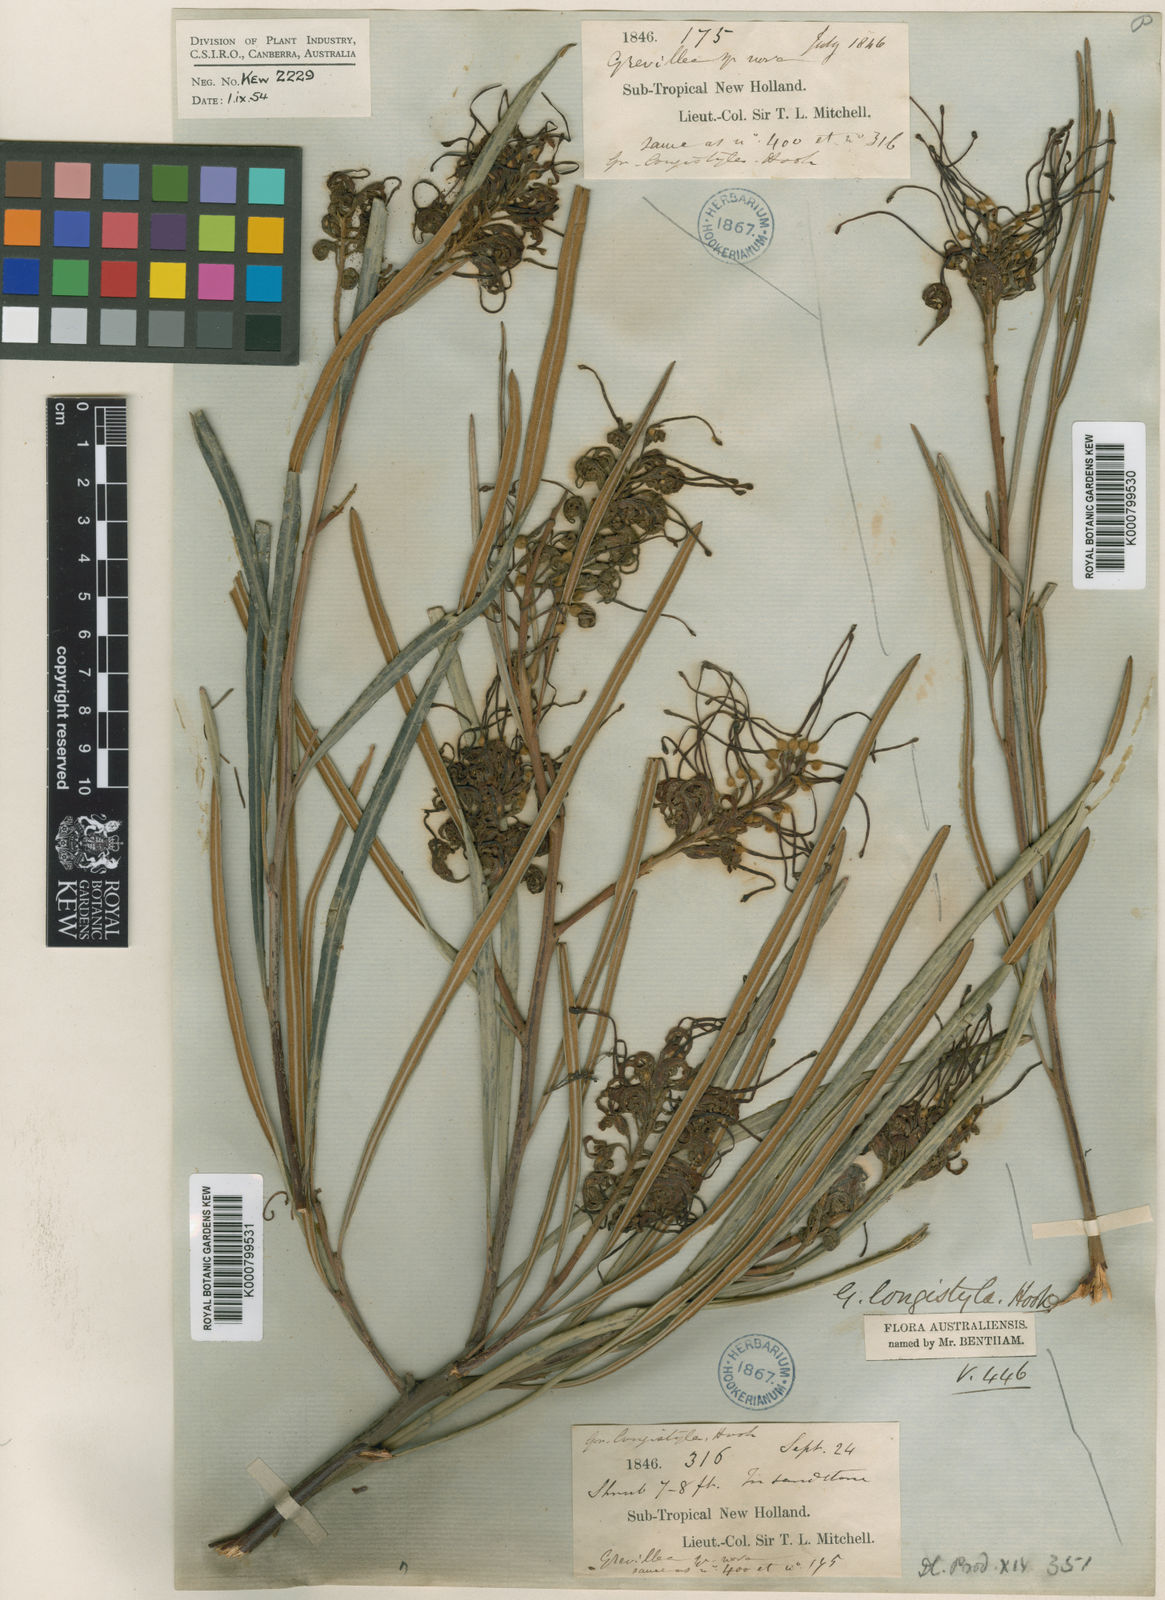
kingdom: Plantae
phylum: Tracheophyta
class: Magnoliopsida
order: Proteales
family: Proteaceae
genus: Grevillea
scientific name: Grevillea longistyla
